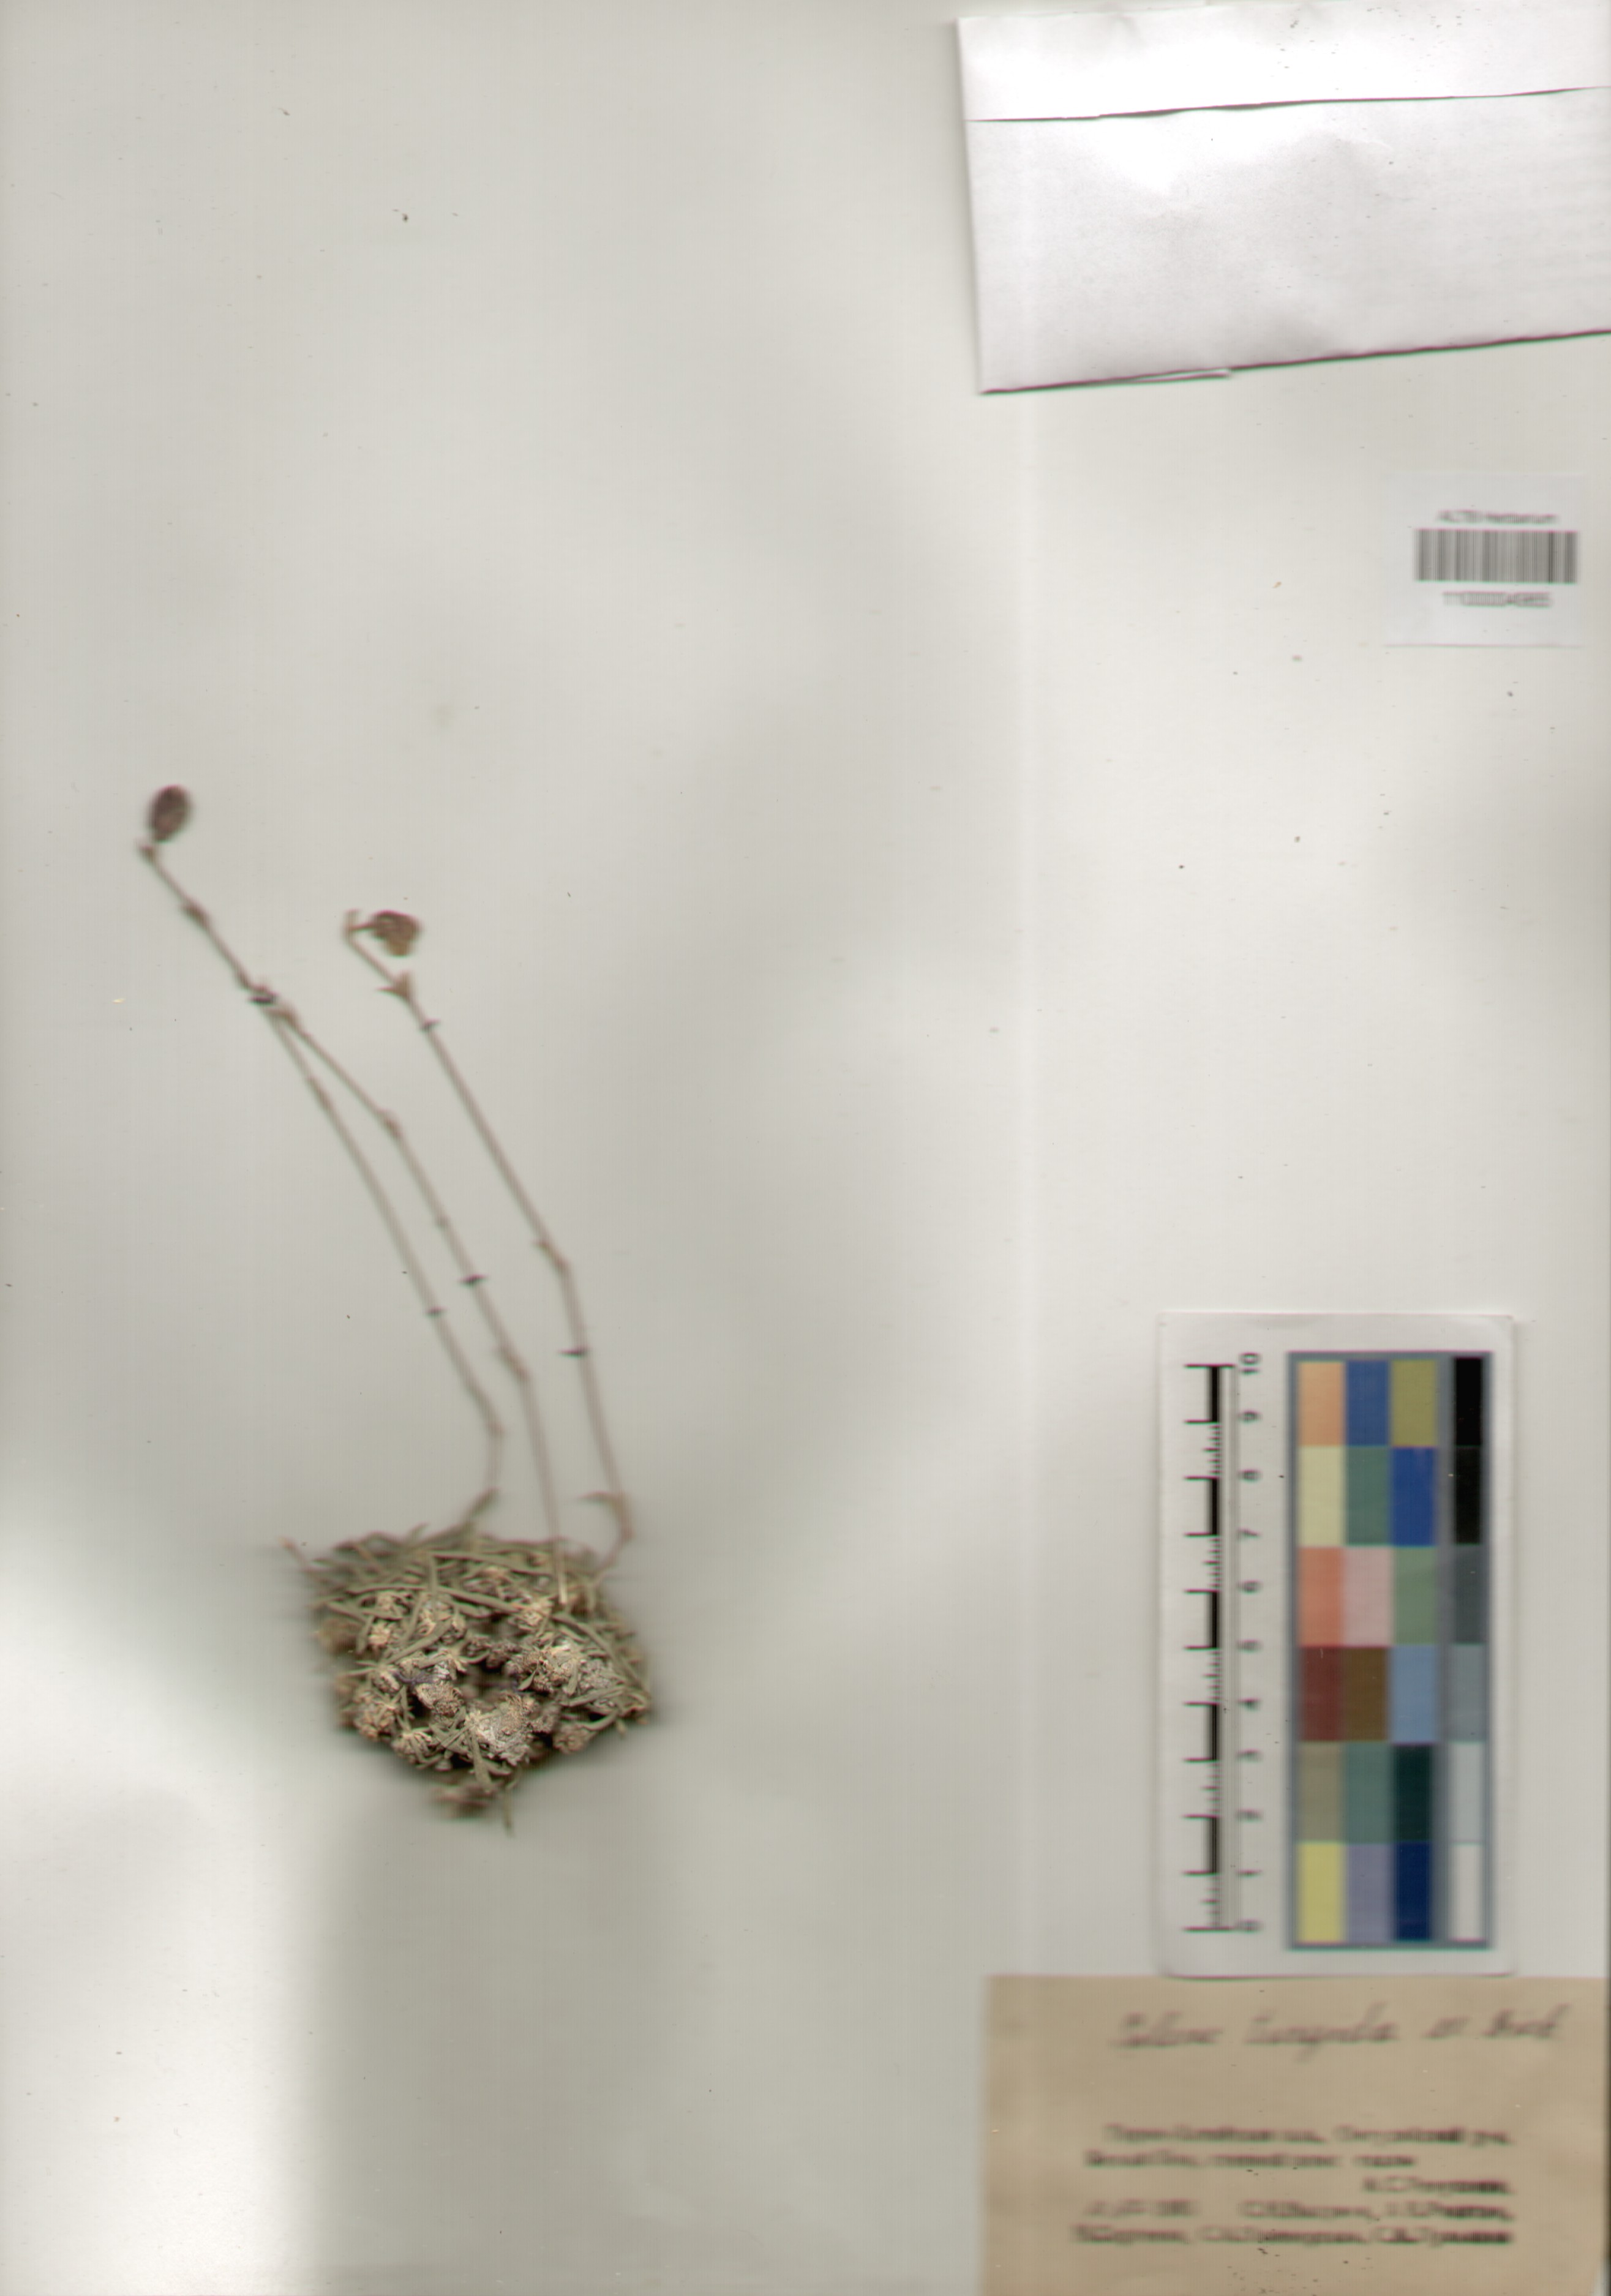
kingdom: Plantae
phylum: Tracheophyta
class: Magnoliopsida
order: Caryophyllales
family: Caryophyllaceae
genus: Silene
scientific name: Silene turgida
